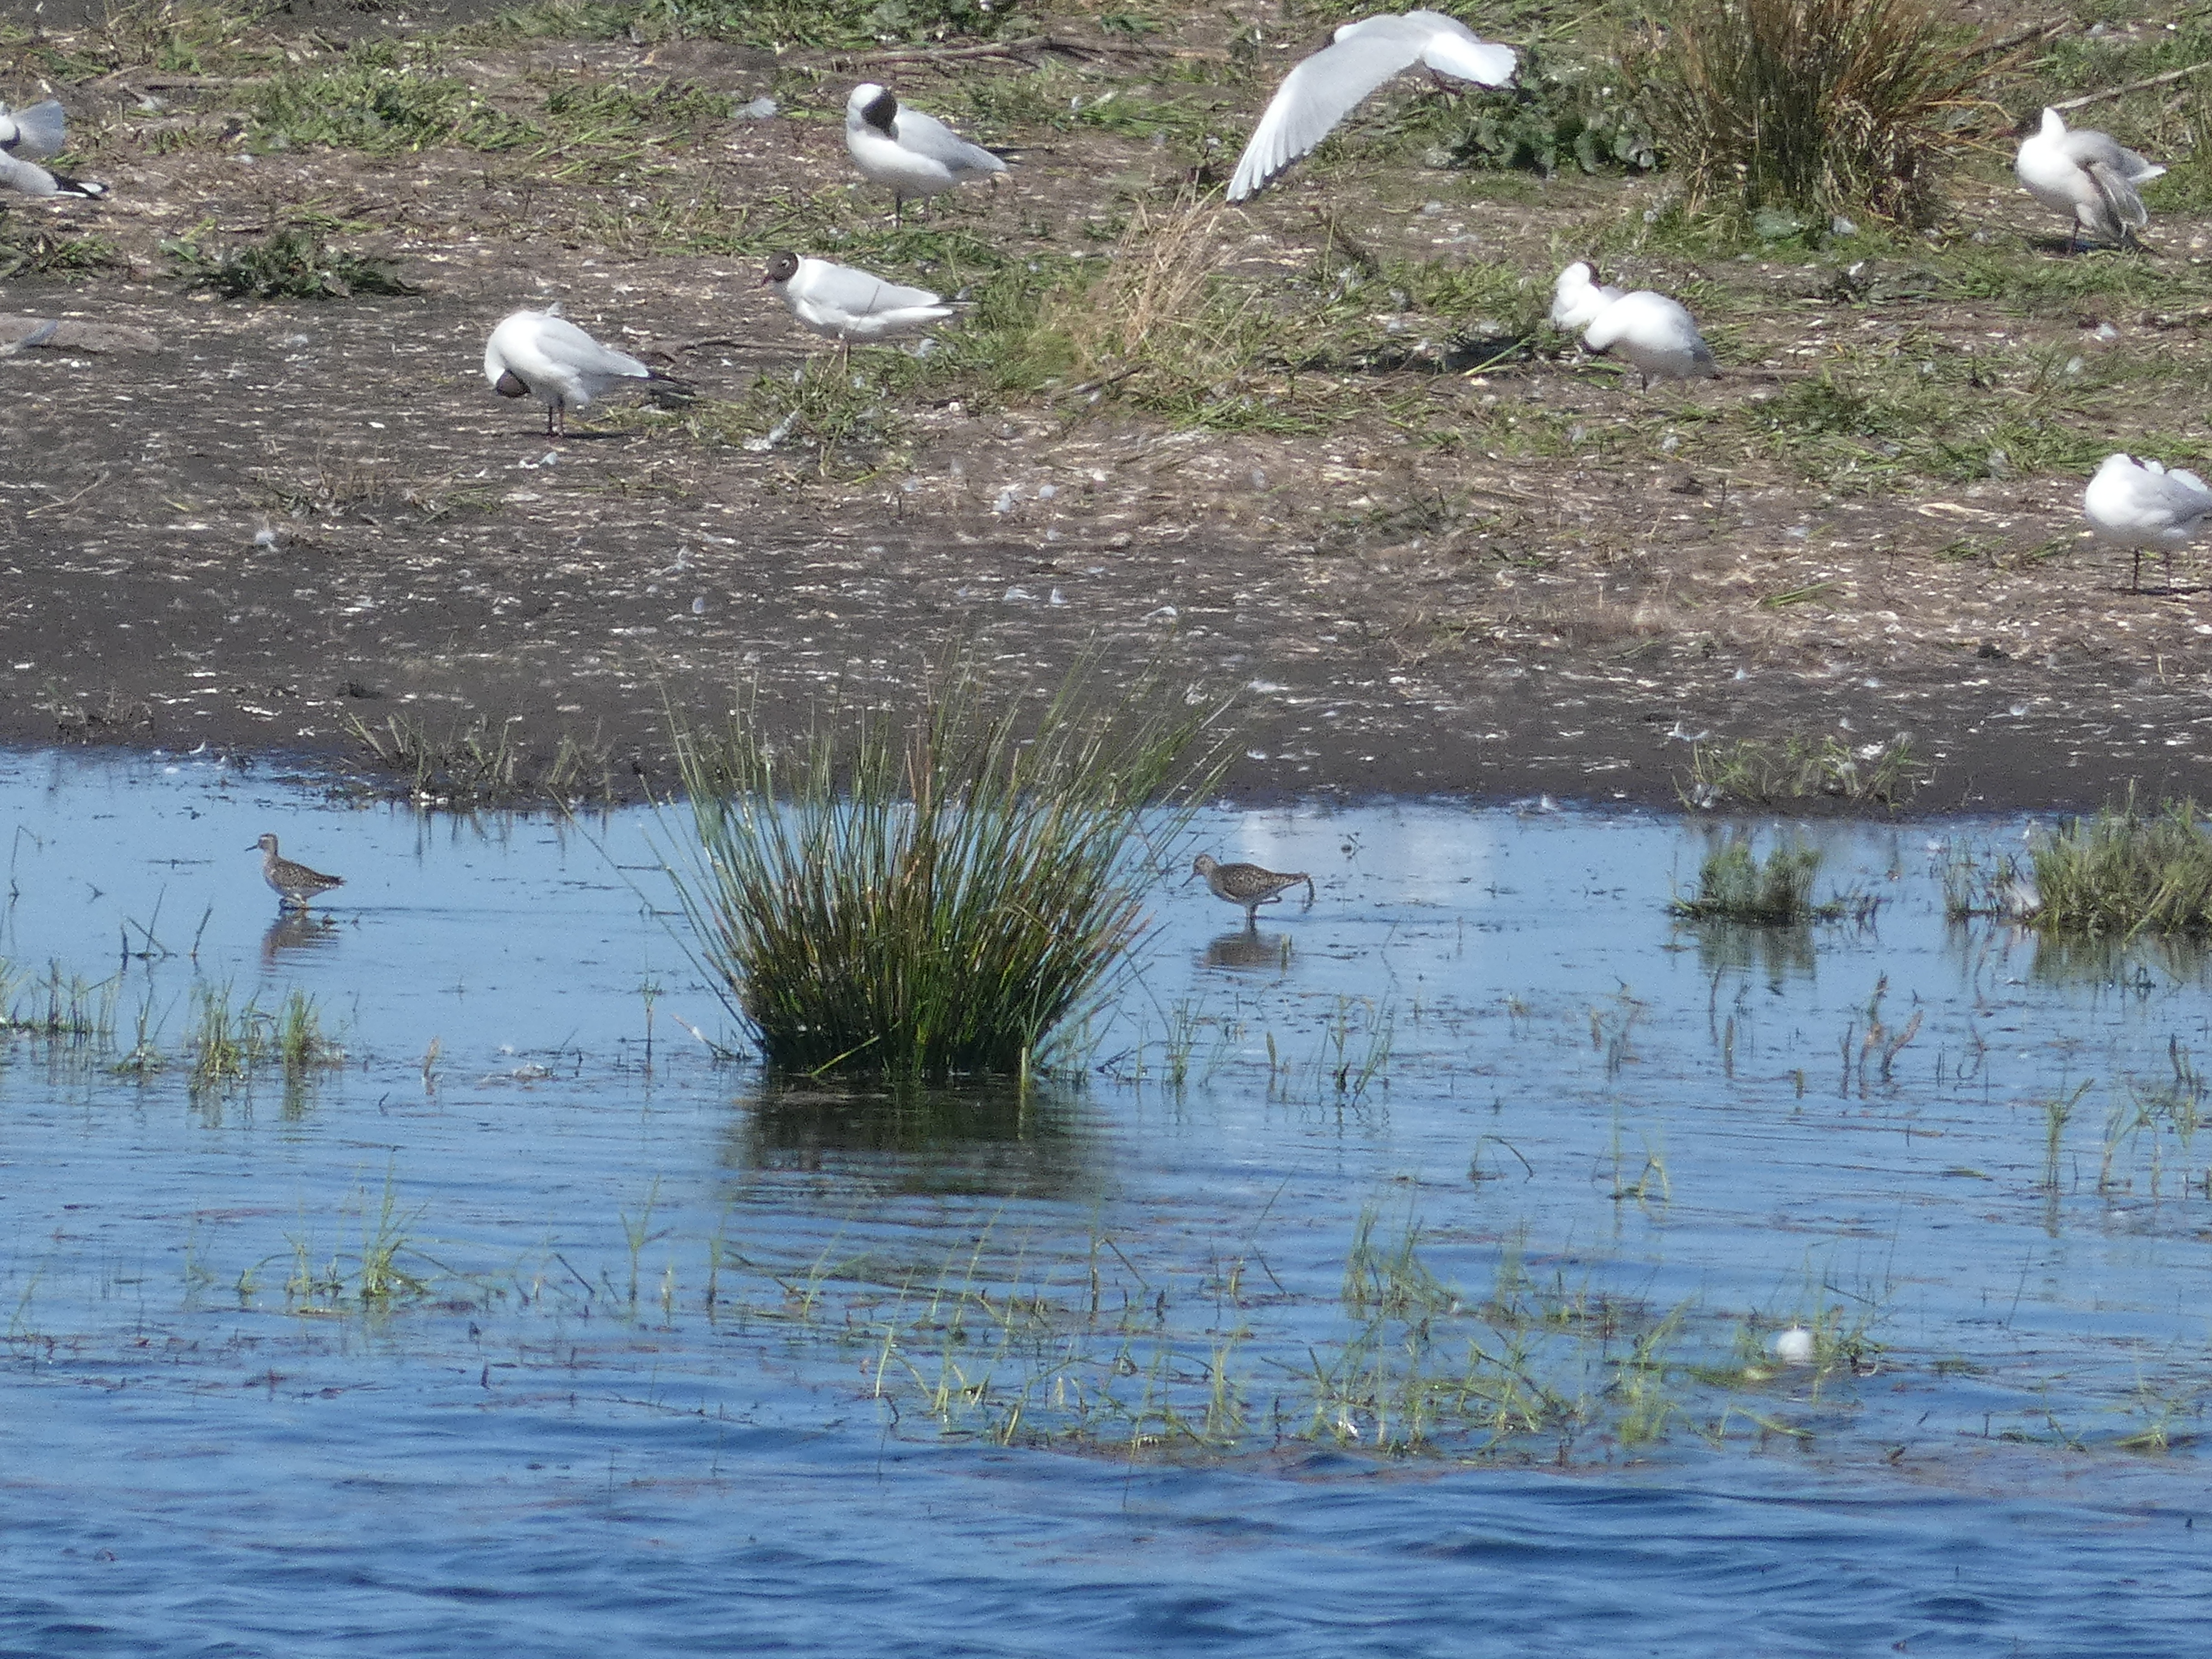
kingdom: Animalia
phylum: Chordata
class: Aves
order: Charadriiformes
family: Scolopacidae
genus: Tringa
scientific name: Tringa glareola
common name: Tinksmed
